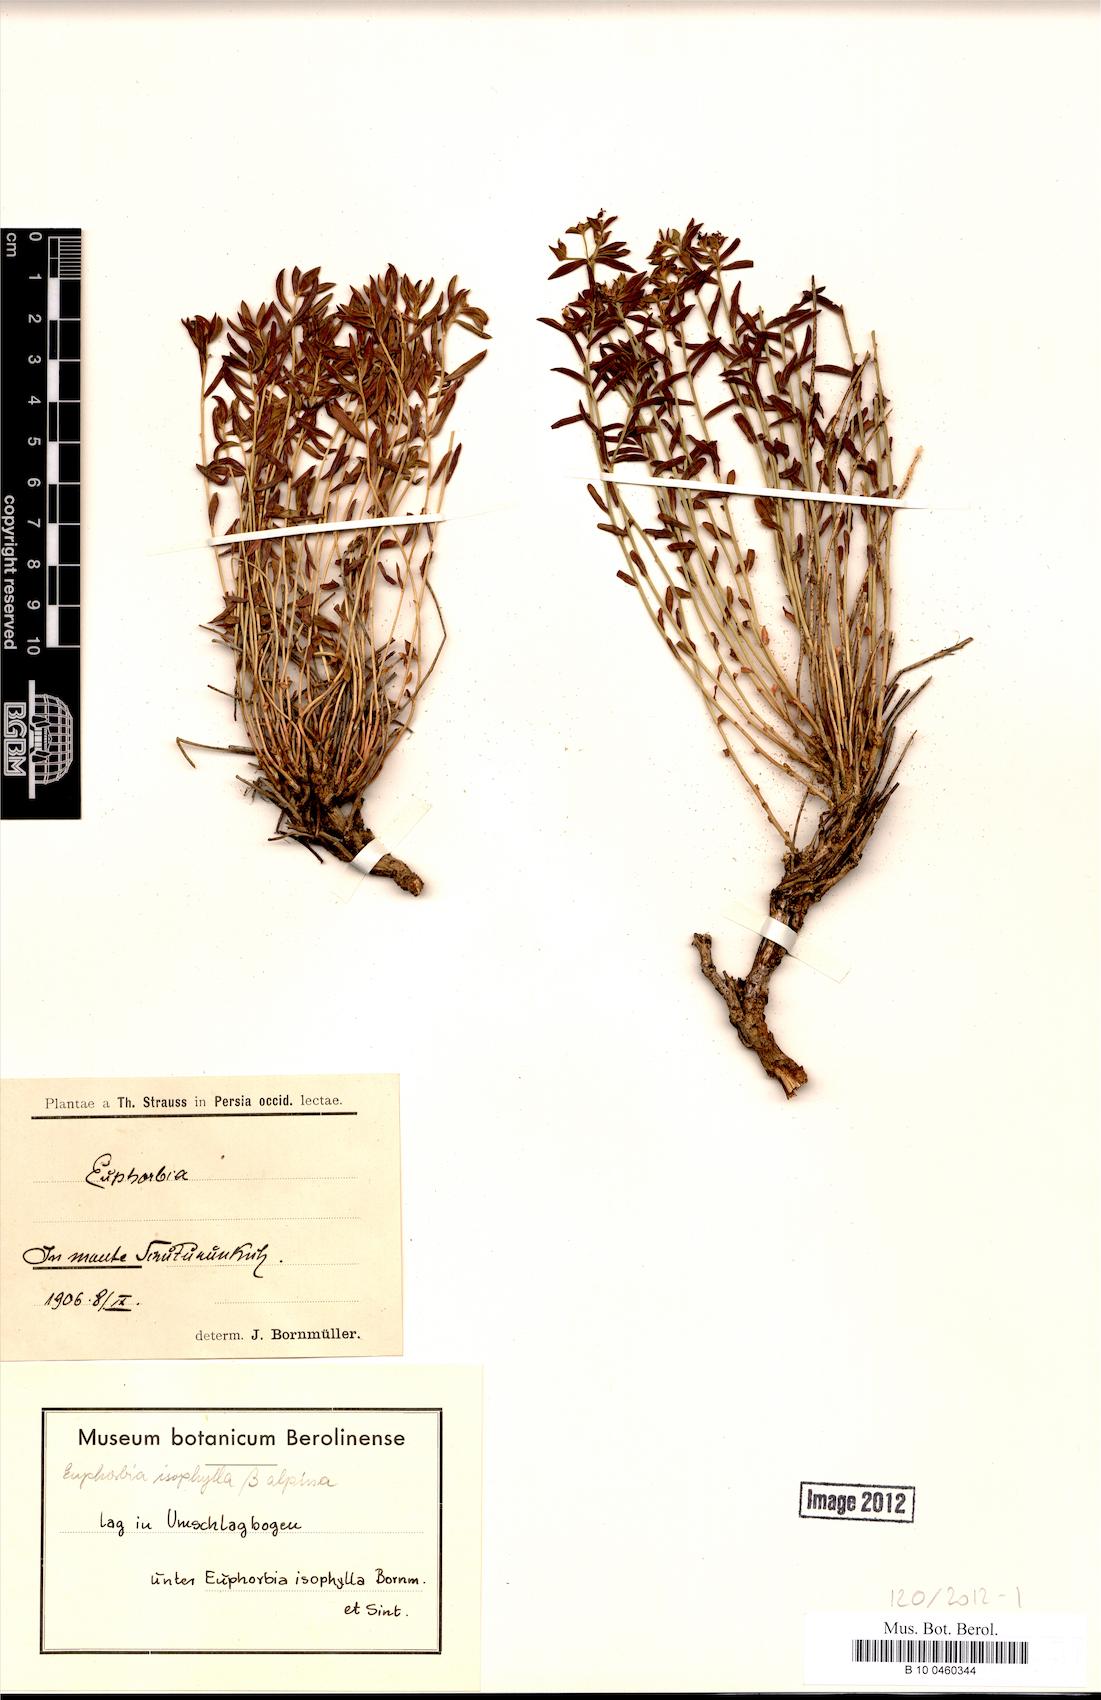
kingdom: Plantae
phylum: Tracheophyta
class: Magnoliopsida
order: Malpighiales
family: Euphorbiaceae
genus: Euphorbia
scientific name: Euphorbia microsciadia
